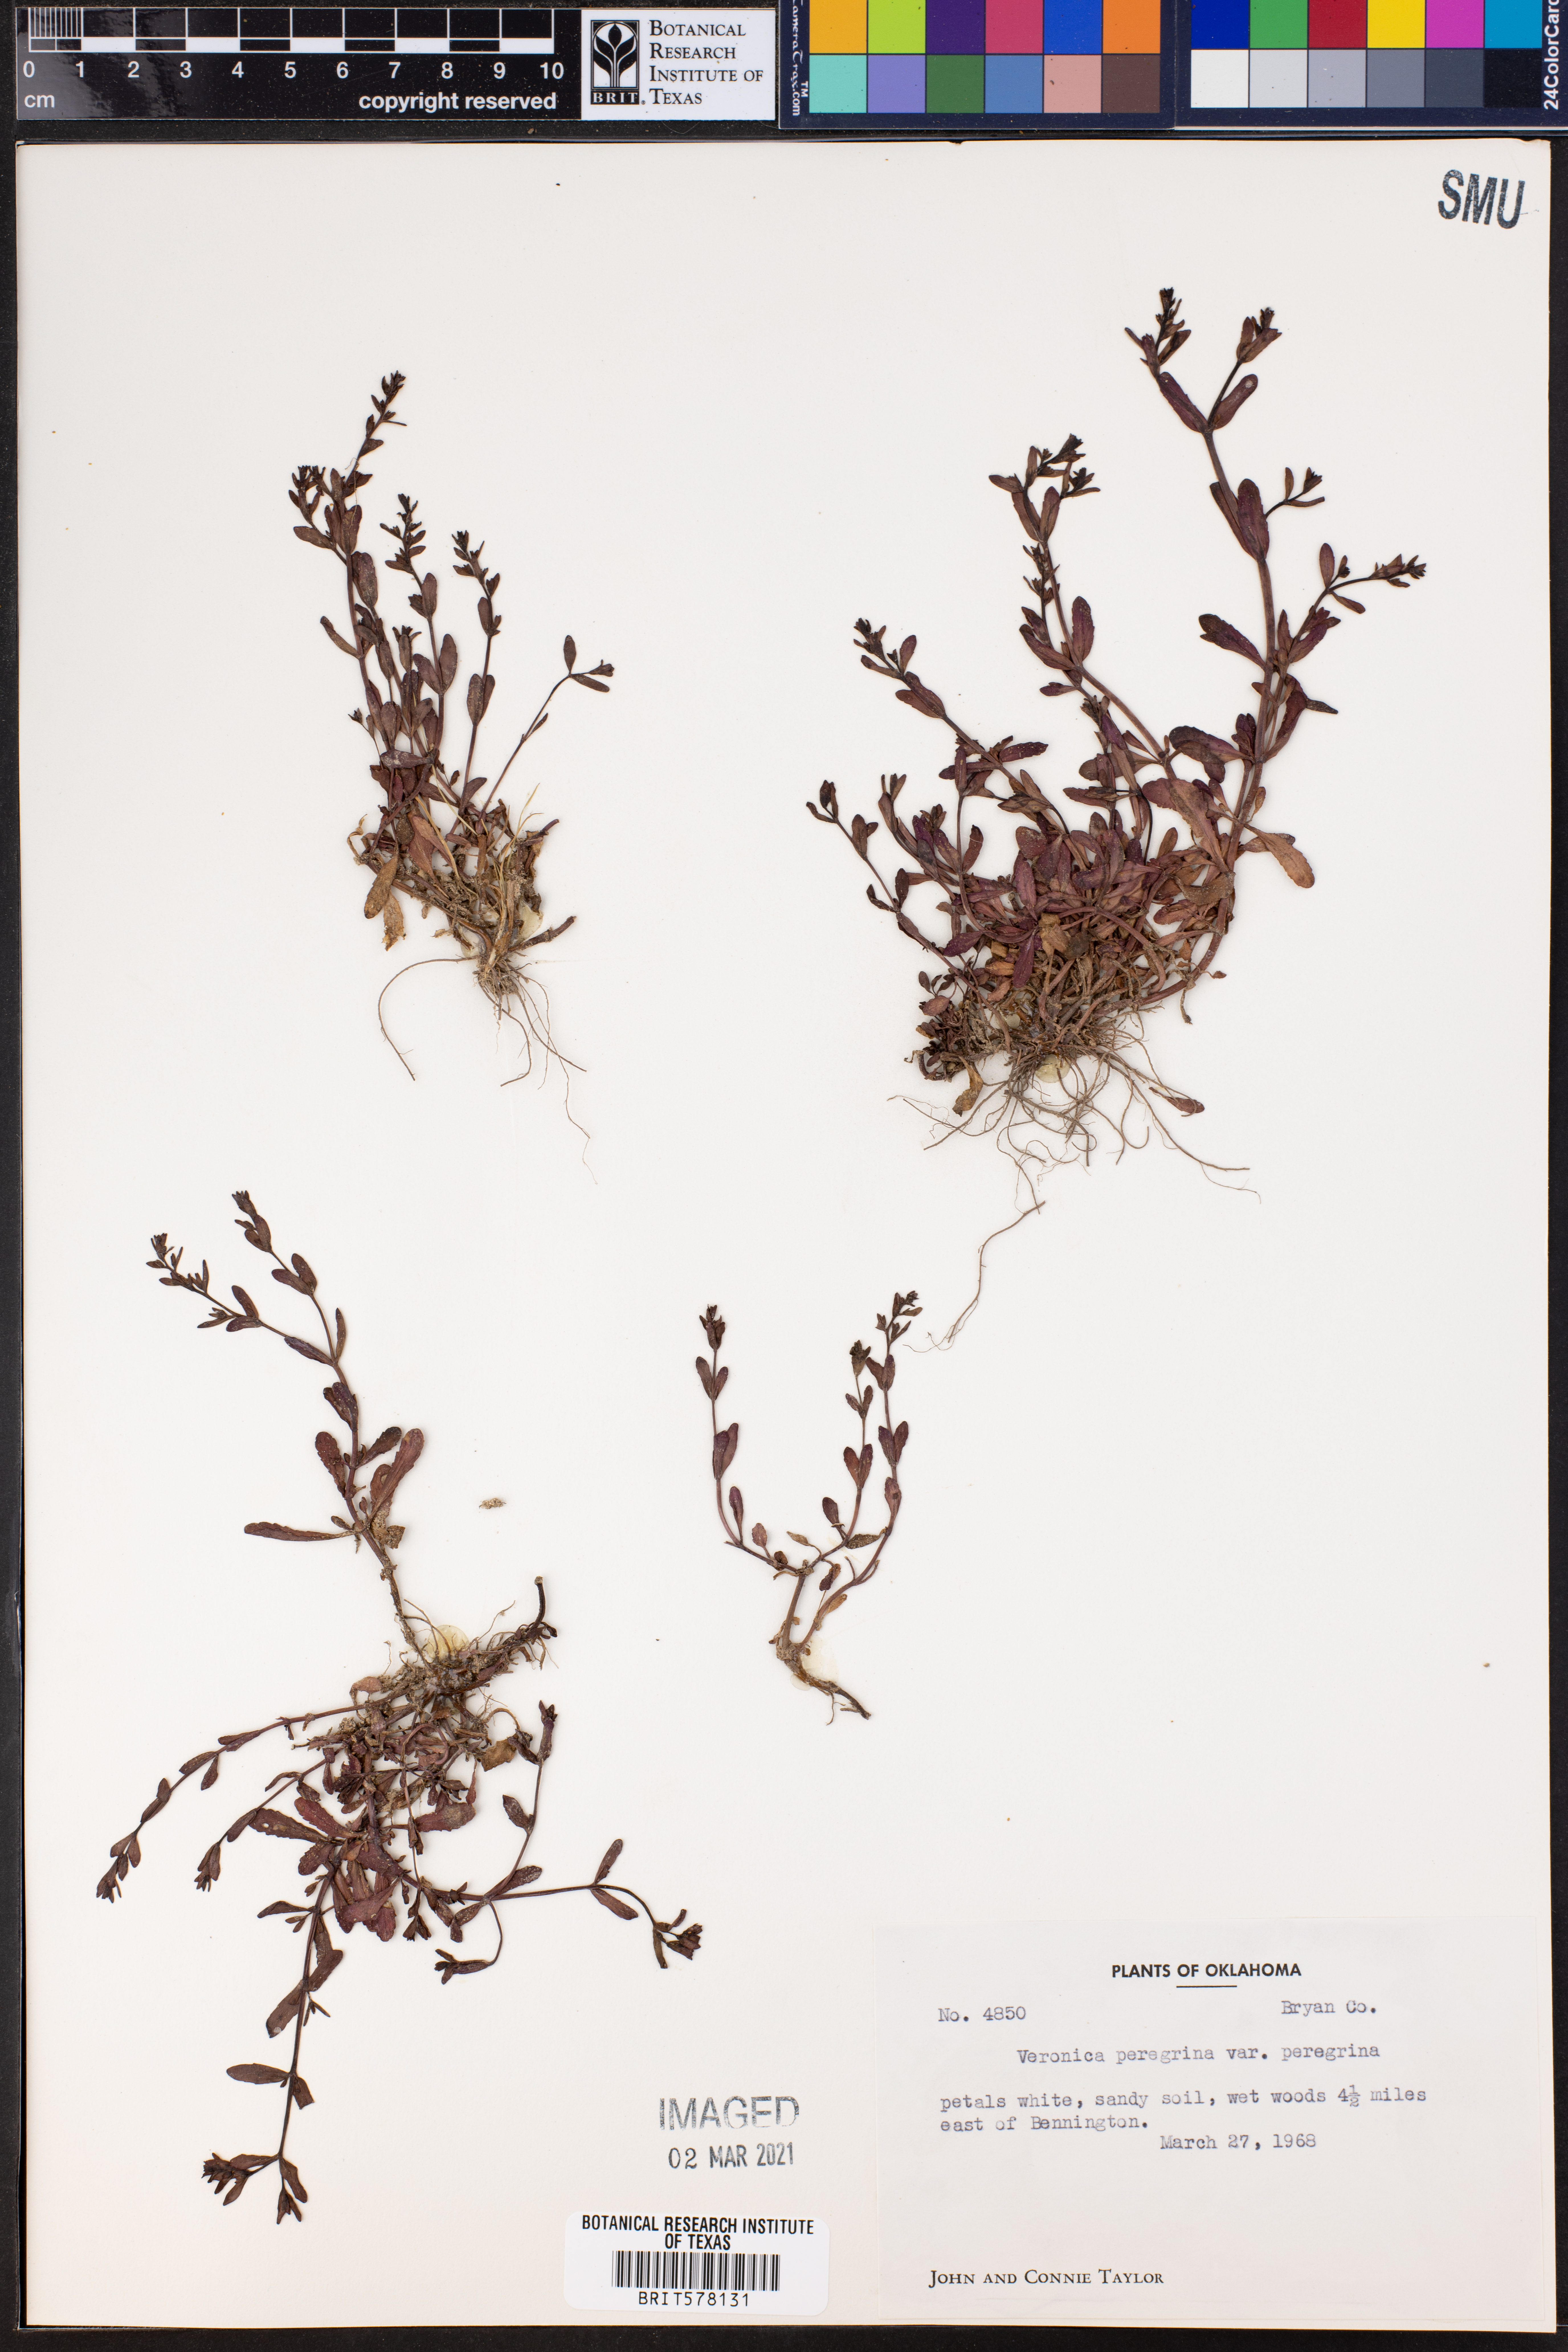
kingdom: Plantae
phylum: Tracheophyta
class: Magnoliopsida
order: Lamiales
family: Plantaginaceae
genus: Veronica
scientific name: Veronica peregrina
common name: Neckweed
